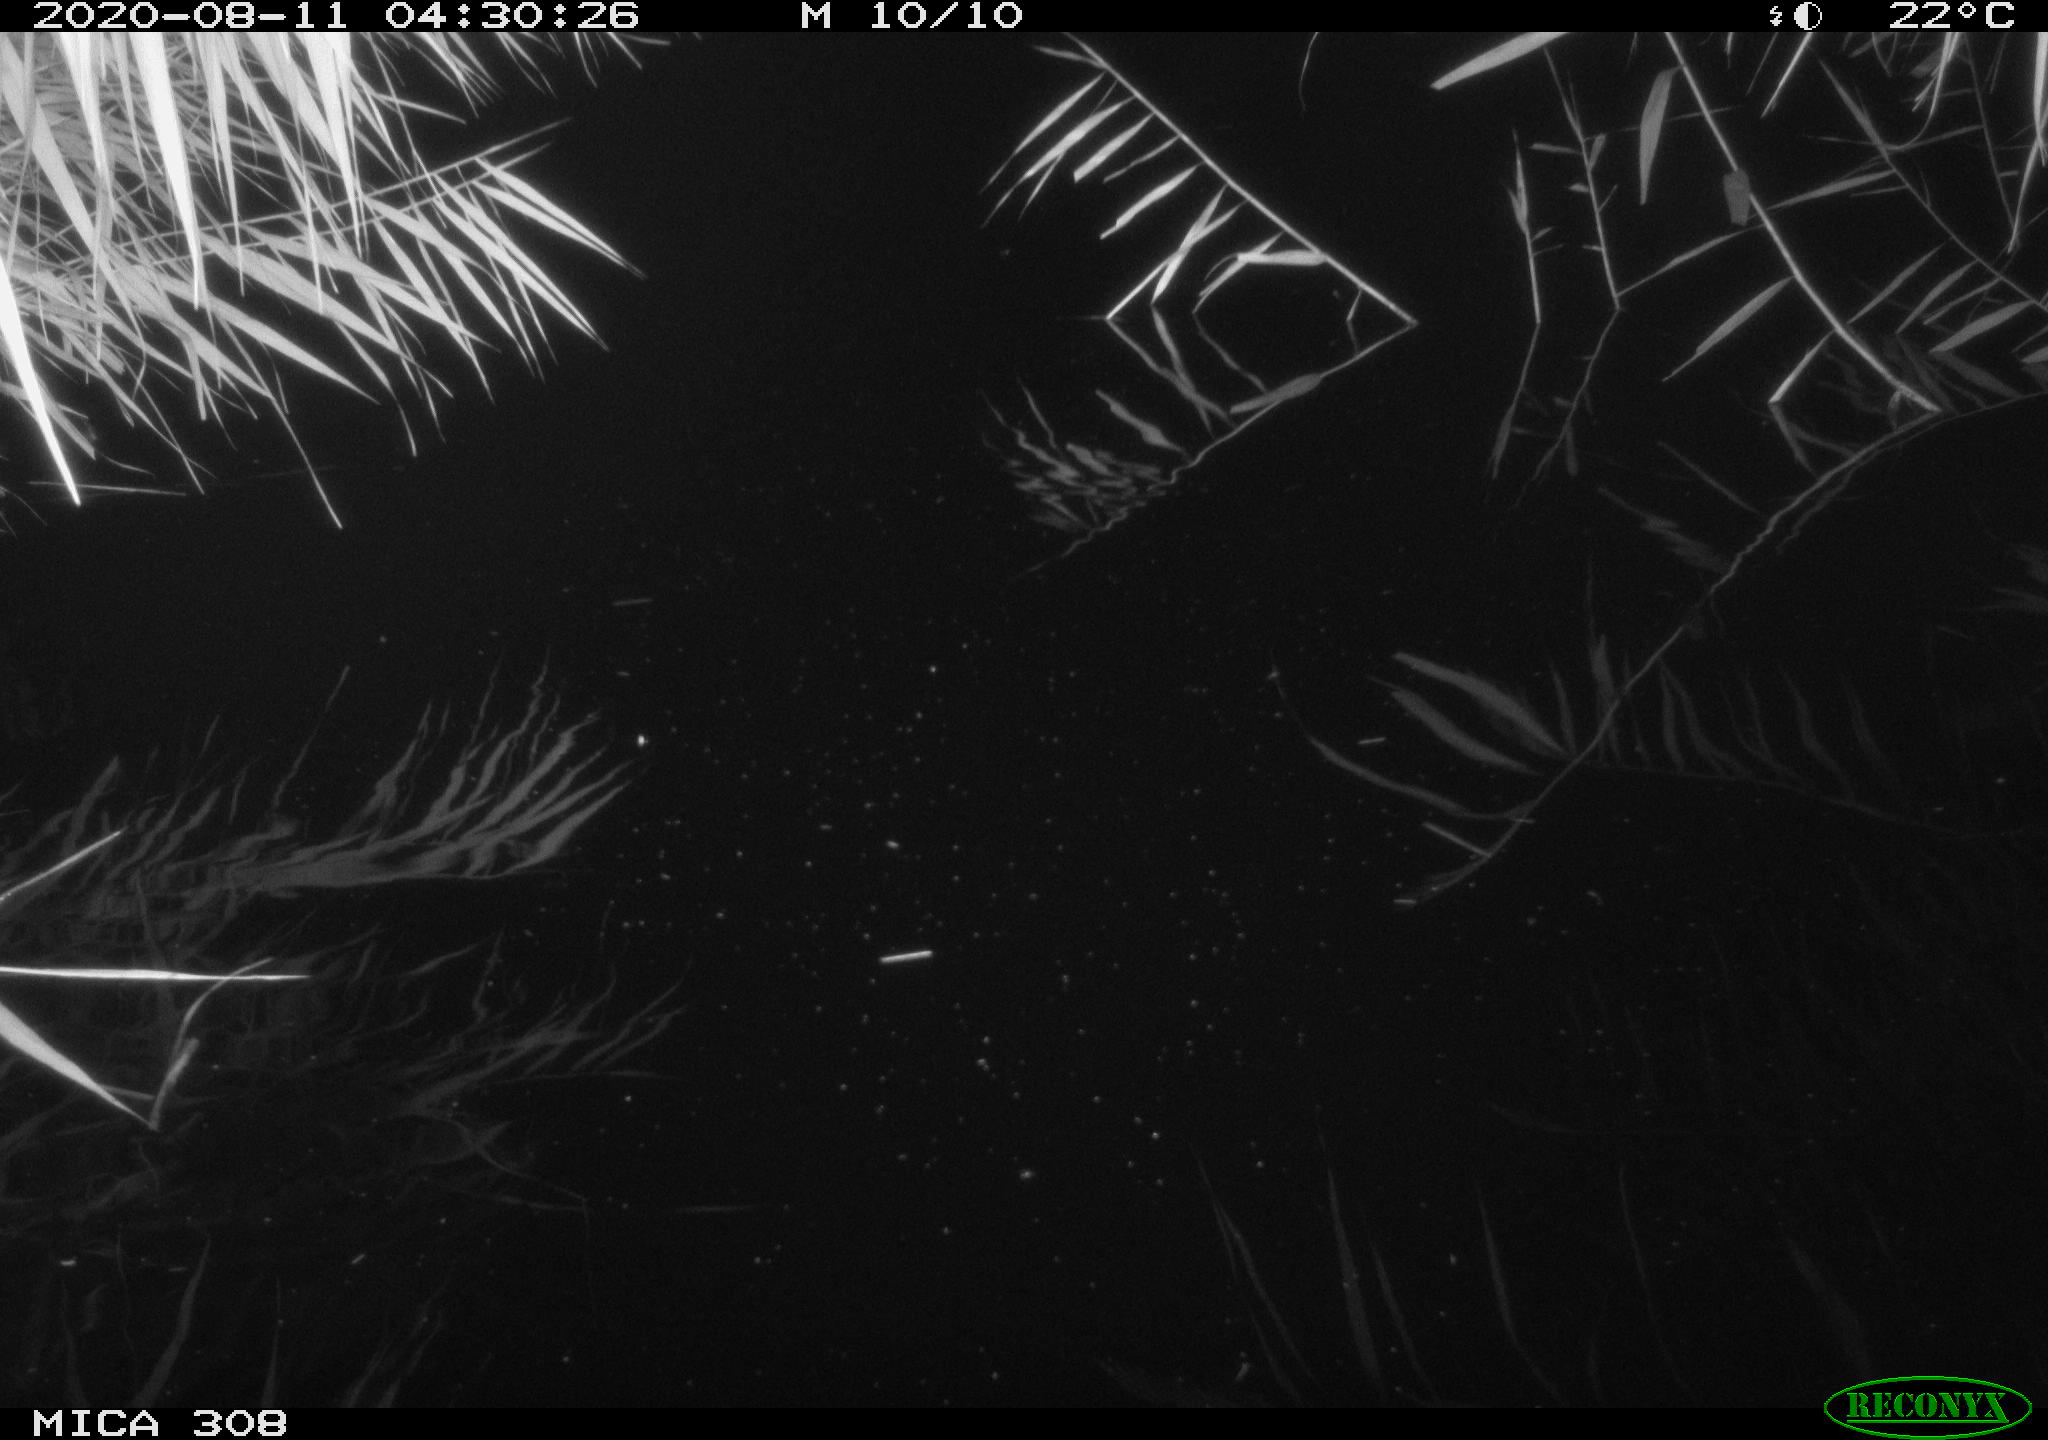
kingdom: Animalia
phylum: Chordata
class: Mammalia
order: Rodentia
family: Muridae
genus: Rattus
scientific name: Rattus norvegicus
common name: Brown rat
